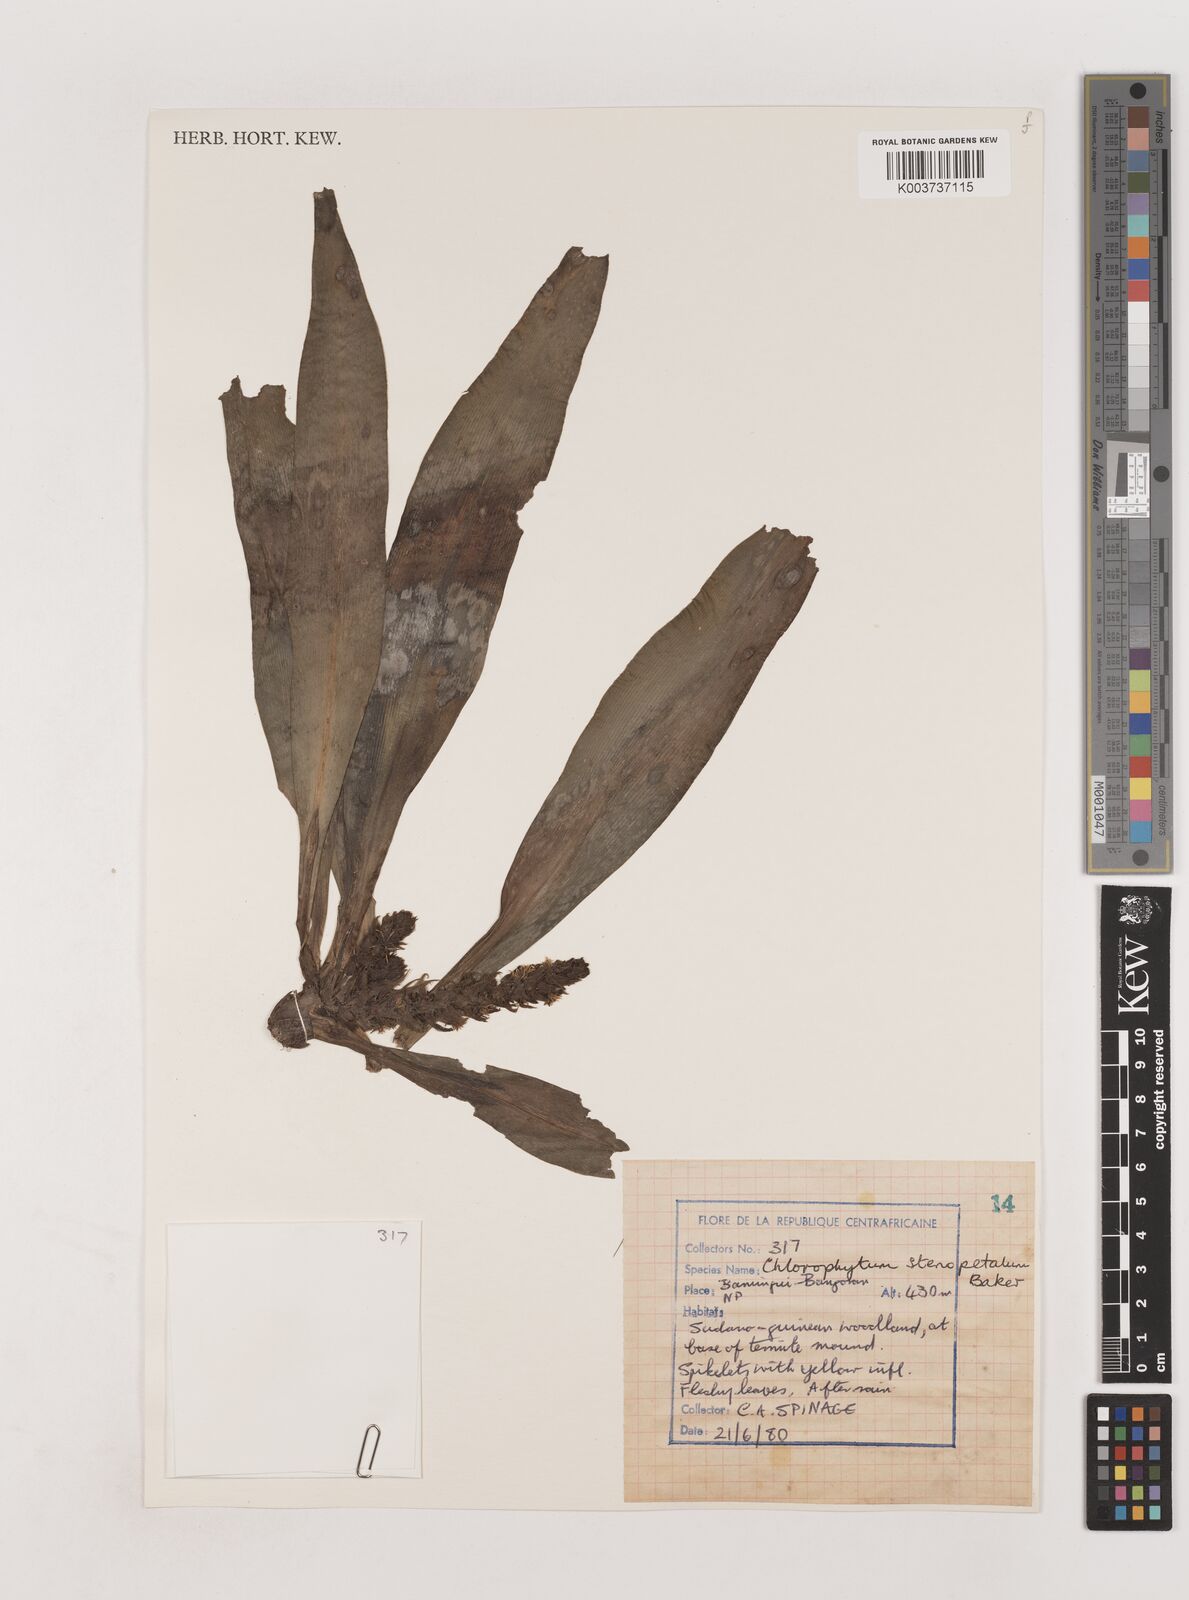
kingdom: Plantae
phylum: Tracheophyta
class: Liliopsida
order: Asparagales
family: Asparagaceae
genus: Chlorophytum
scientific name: Chlorophytum stenopetalum
